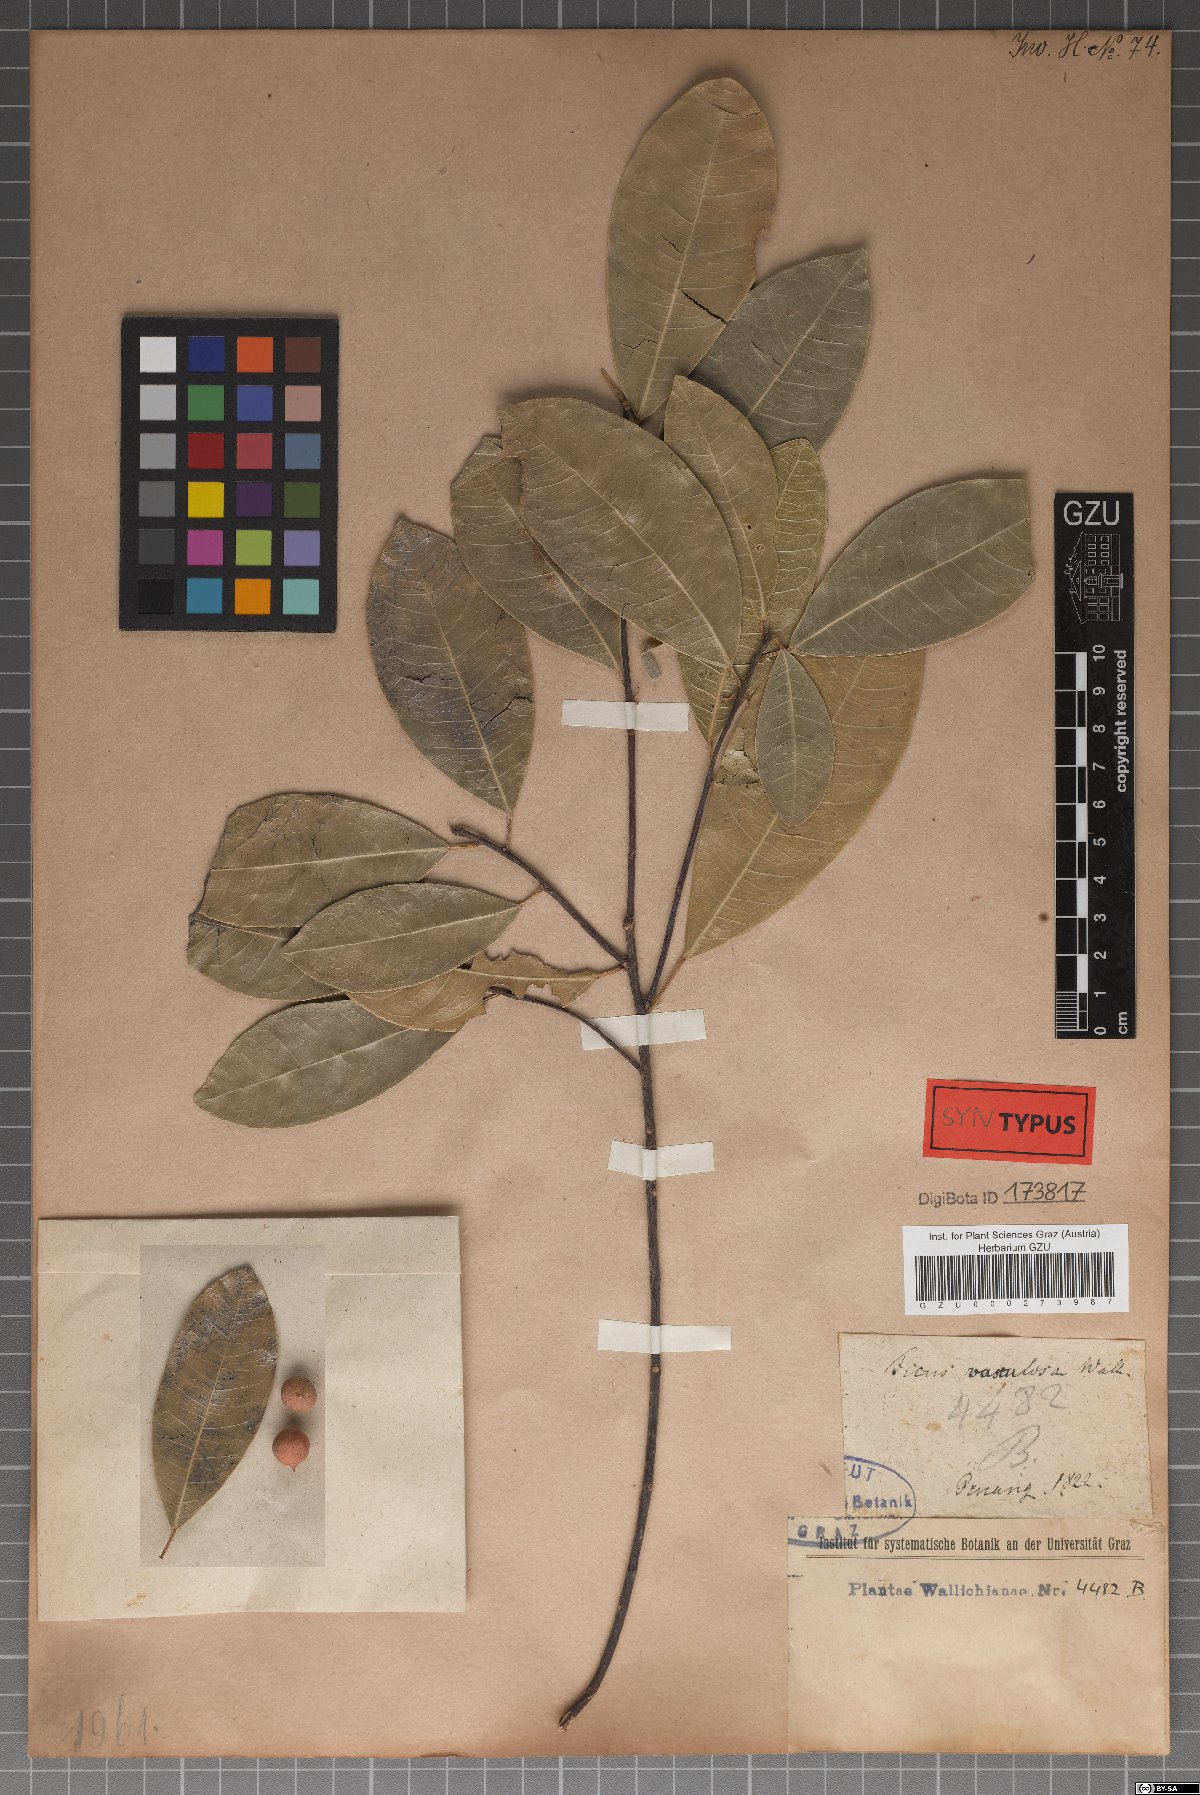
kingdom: Plantae
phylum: Tracheophyta
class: Magnoliopsida
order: Rosales
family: Moraceae
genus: Ficus
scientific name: Ficus vasculosa
